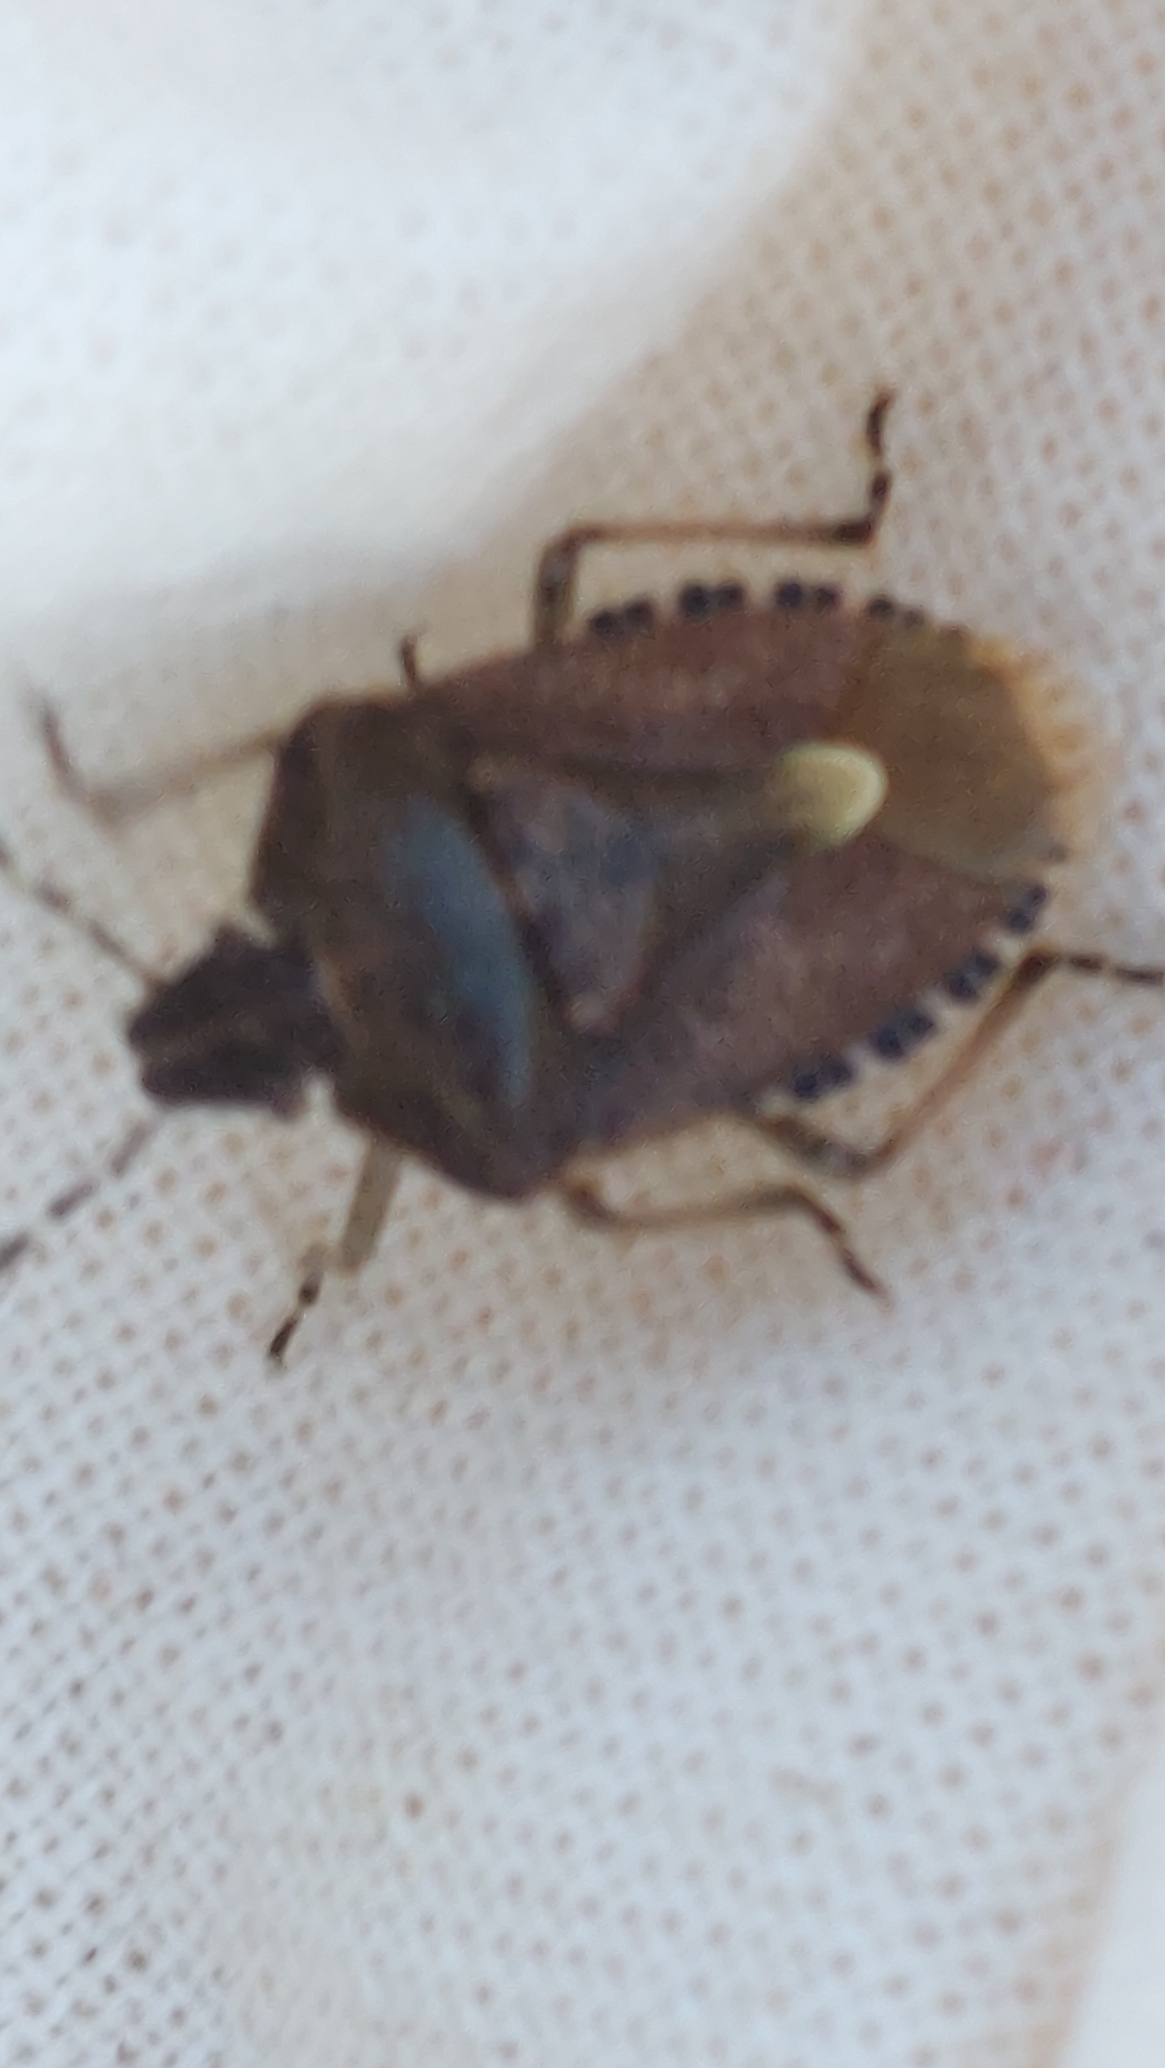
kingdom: Animalia
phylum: Arthropoda
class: Insecta
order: Hemiptera
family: Pentatomidae
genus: Dolycoris
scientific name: Dolycoris baccarum
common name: Almindelig bærtæge
